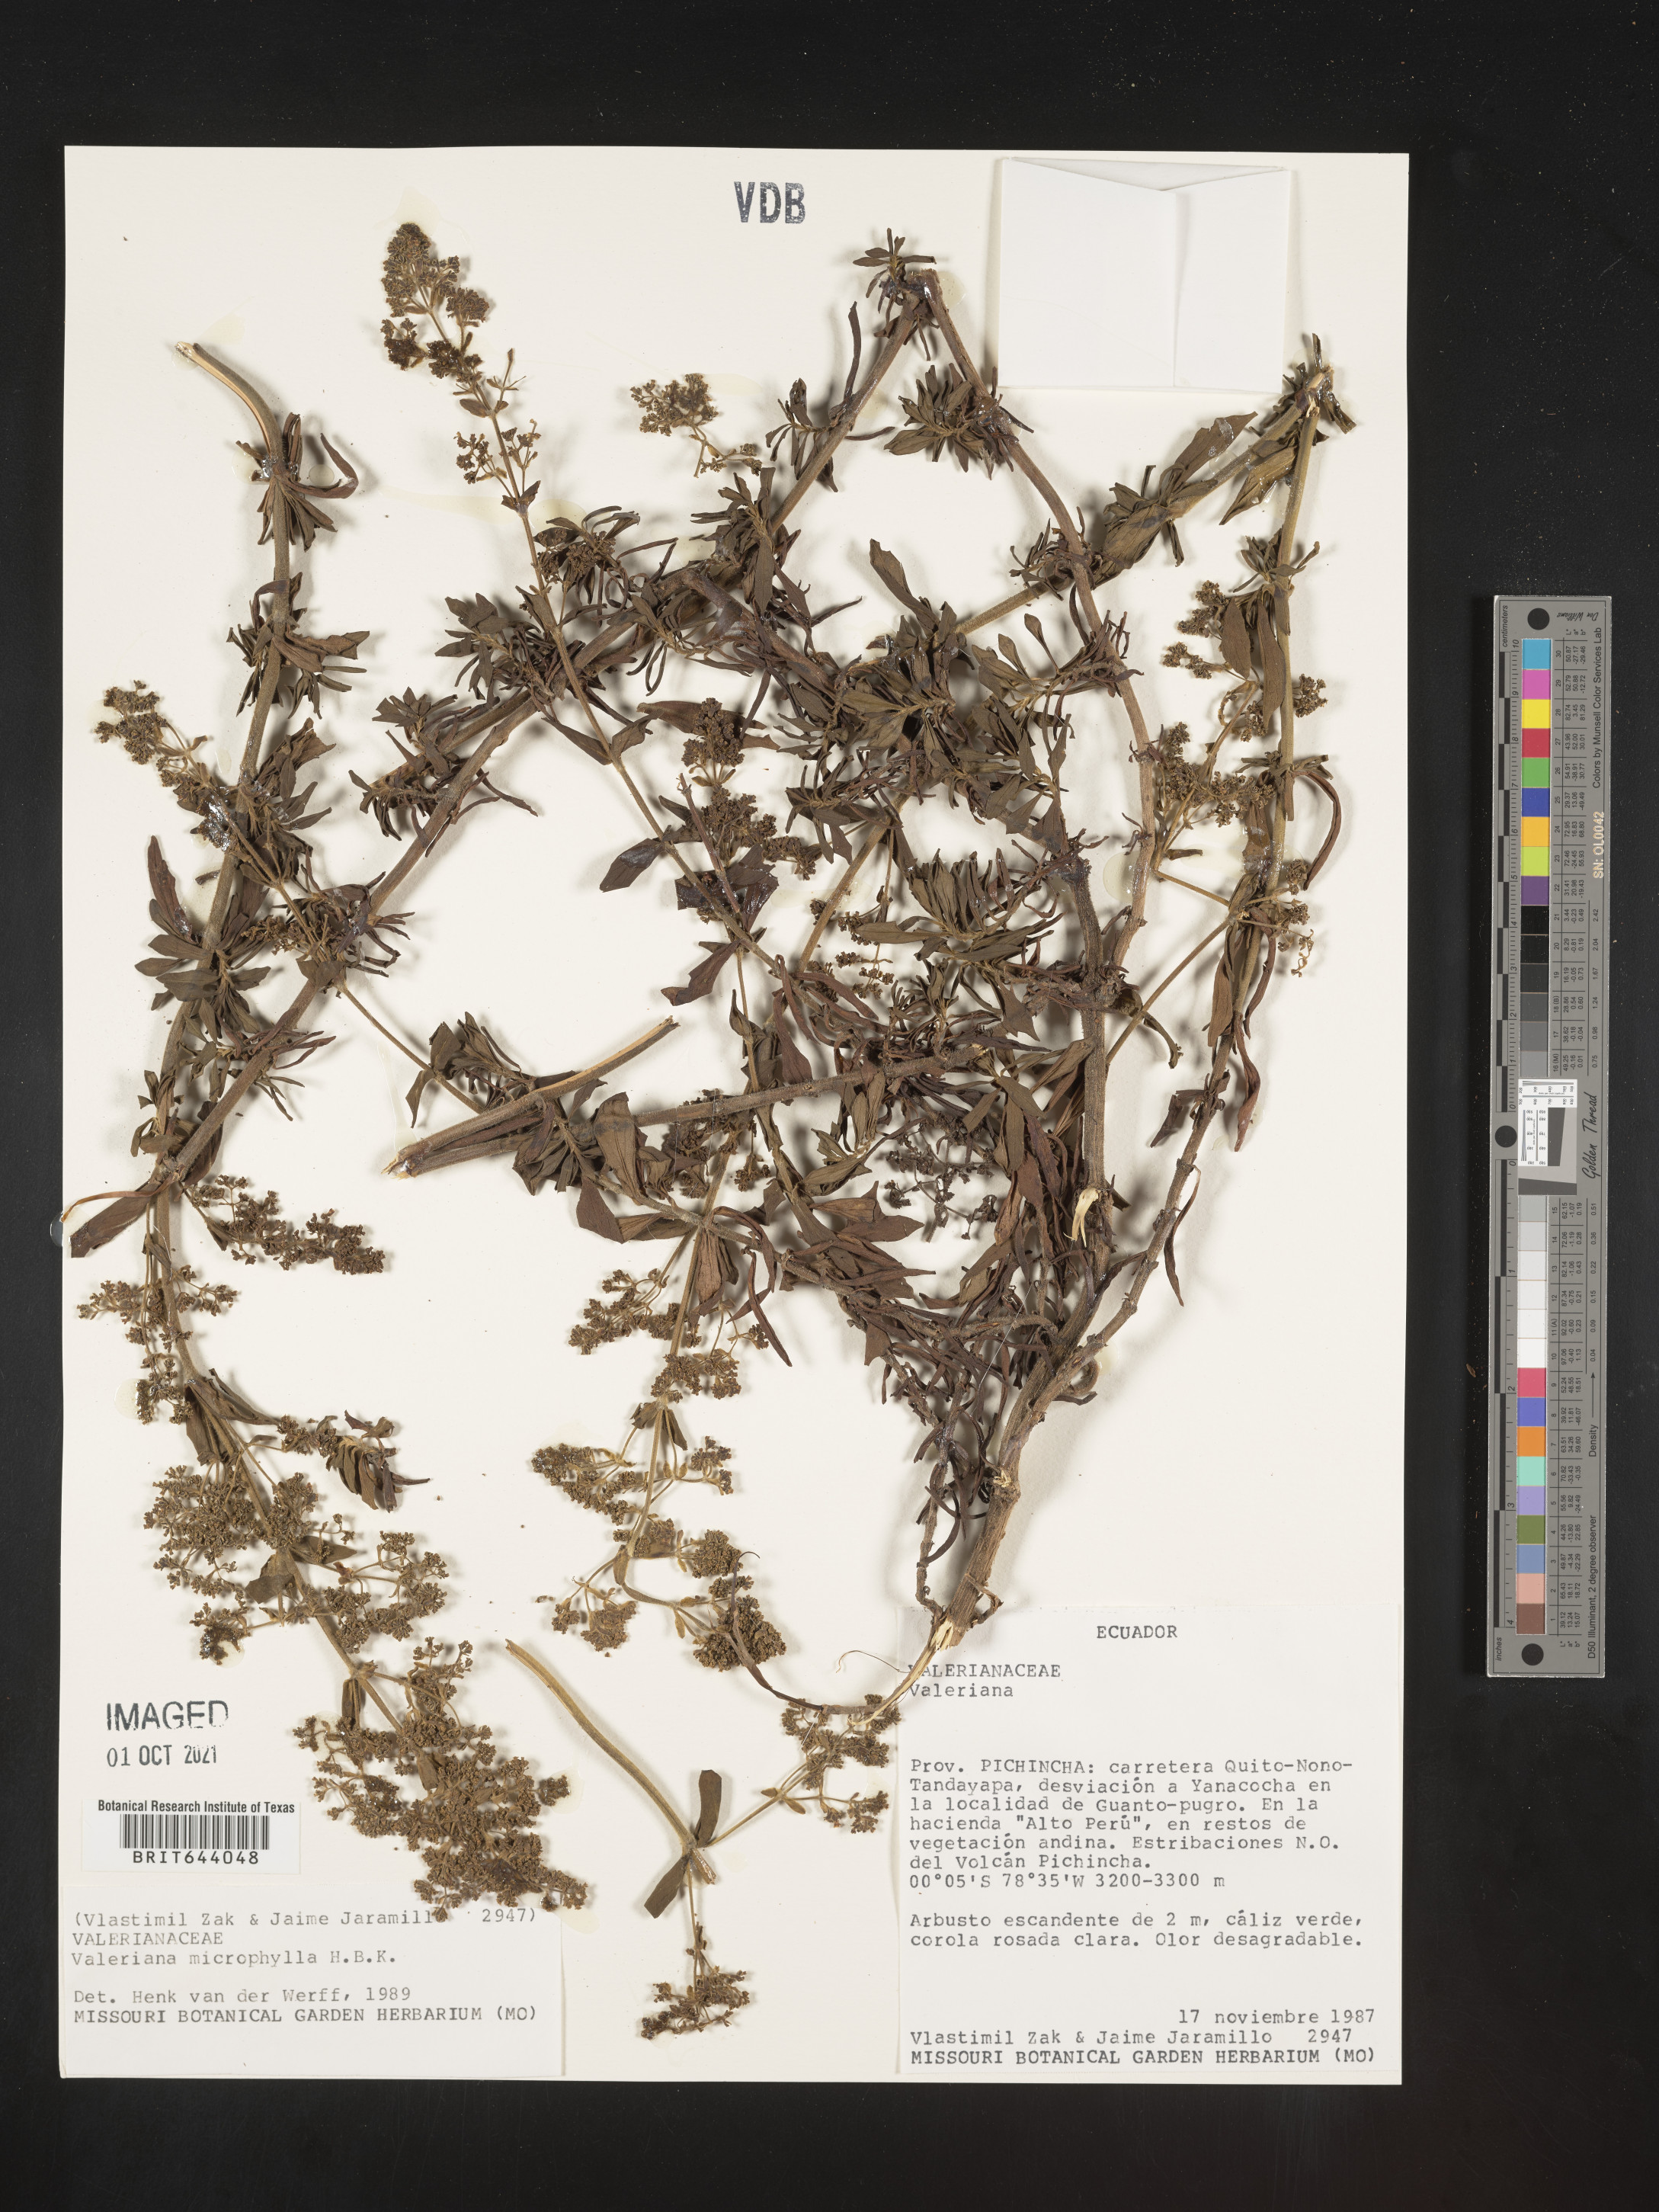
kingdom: Plantae
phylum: Tracheophyta
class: Magnoliopsida
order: Dipsacales
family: Caprifoliaceae
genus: Valeriana
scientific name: Valeriana microphylla
